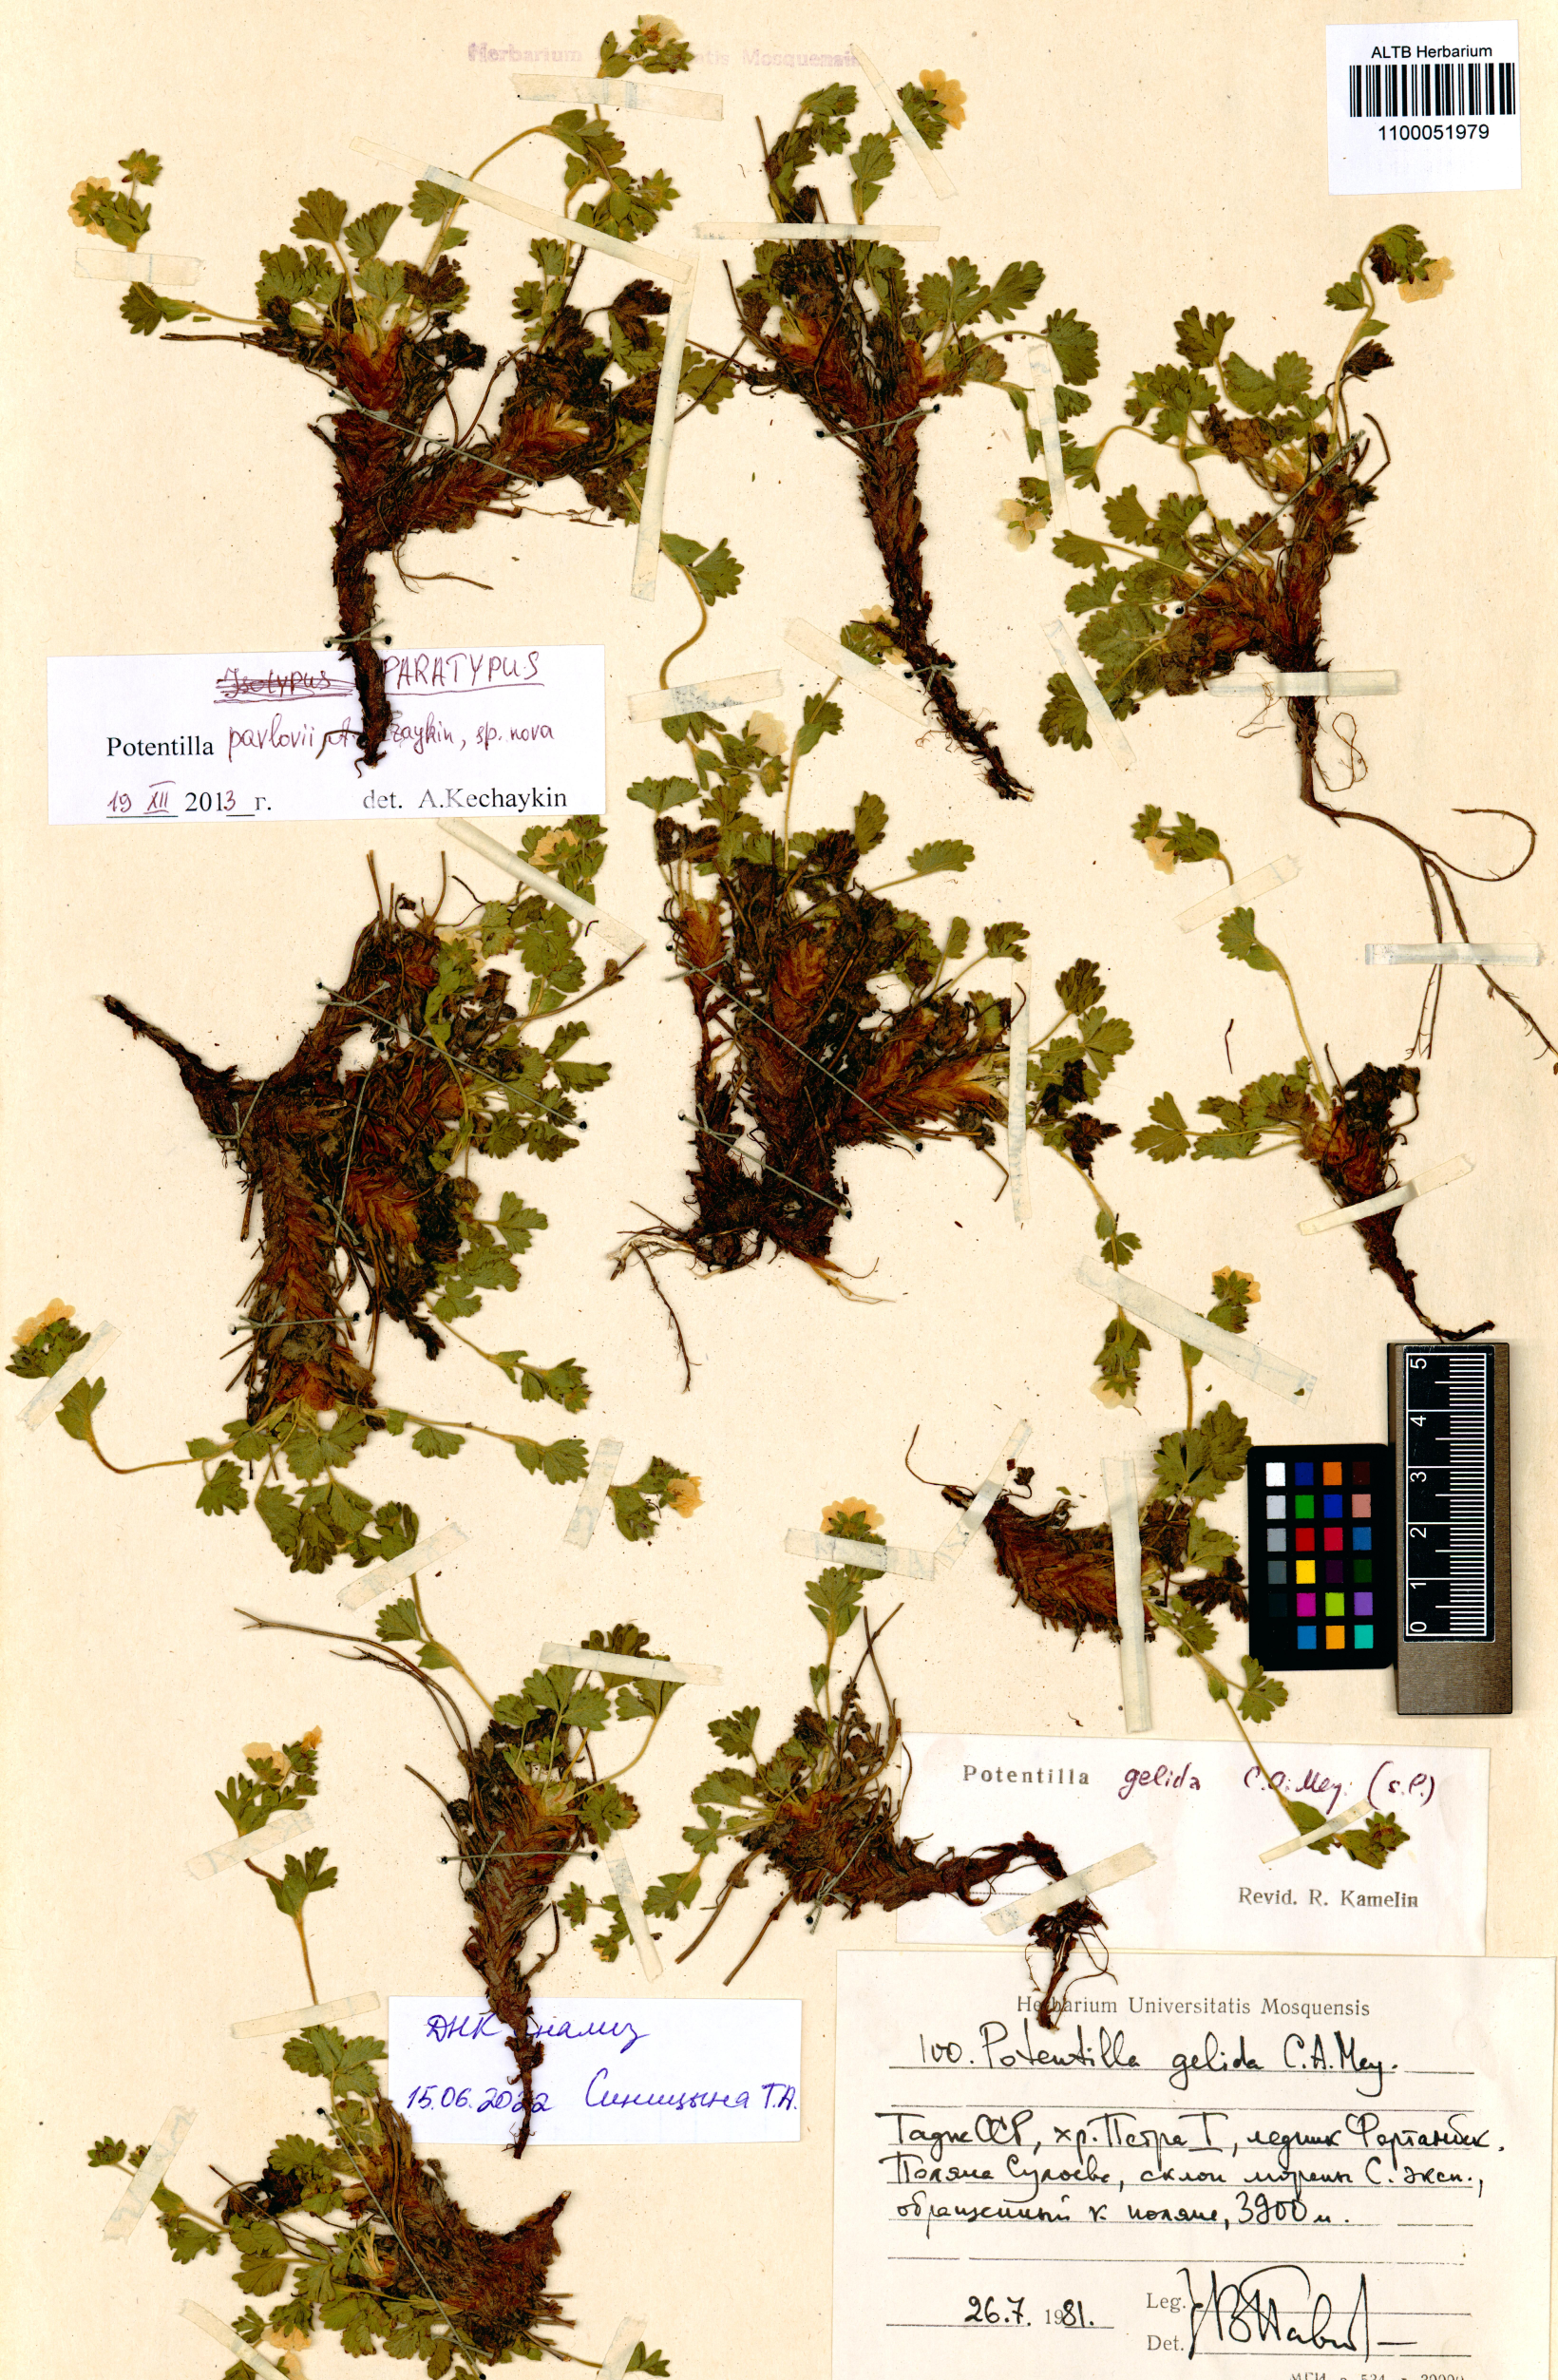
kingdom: Plantae
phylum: Tracheophyta
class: Magnoliopsida
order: Rosales
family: Rosaceae
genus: Potentilla
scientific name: Potentilla
